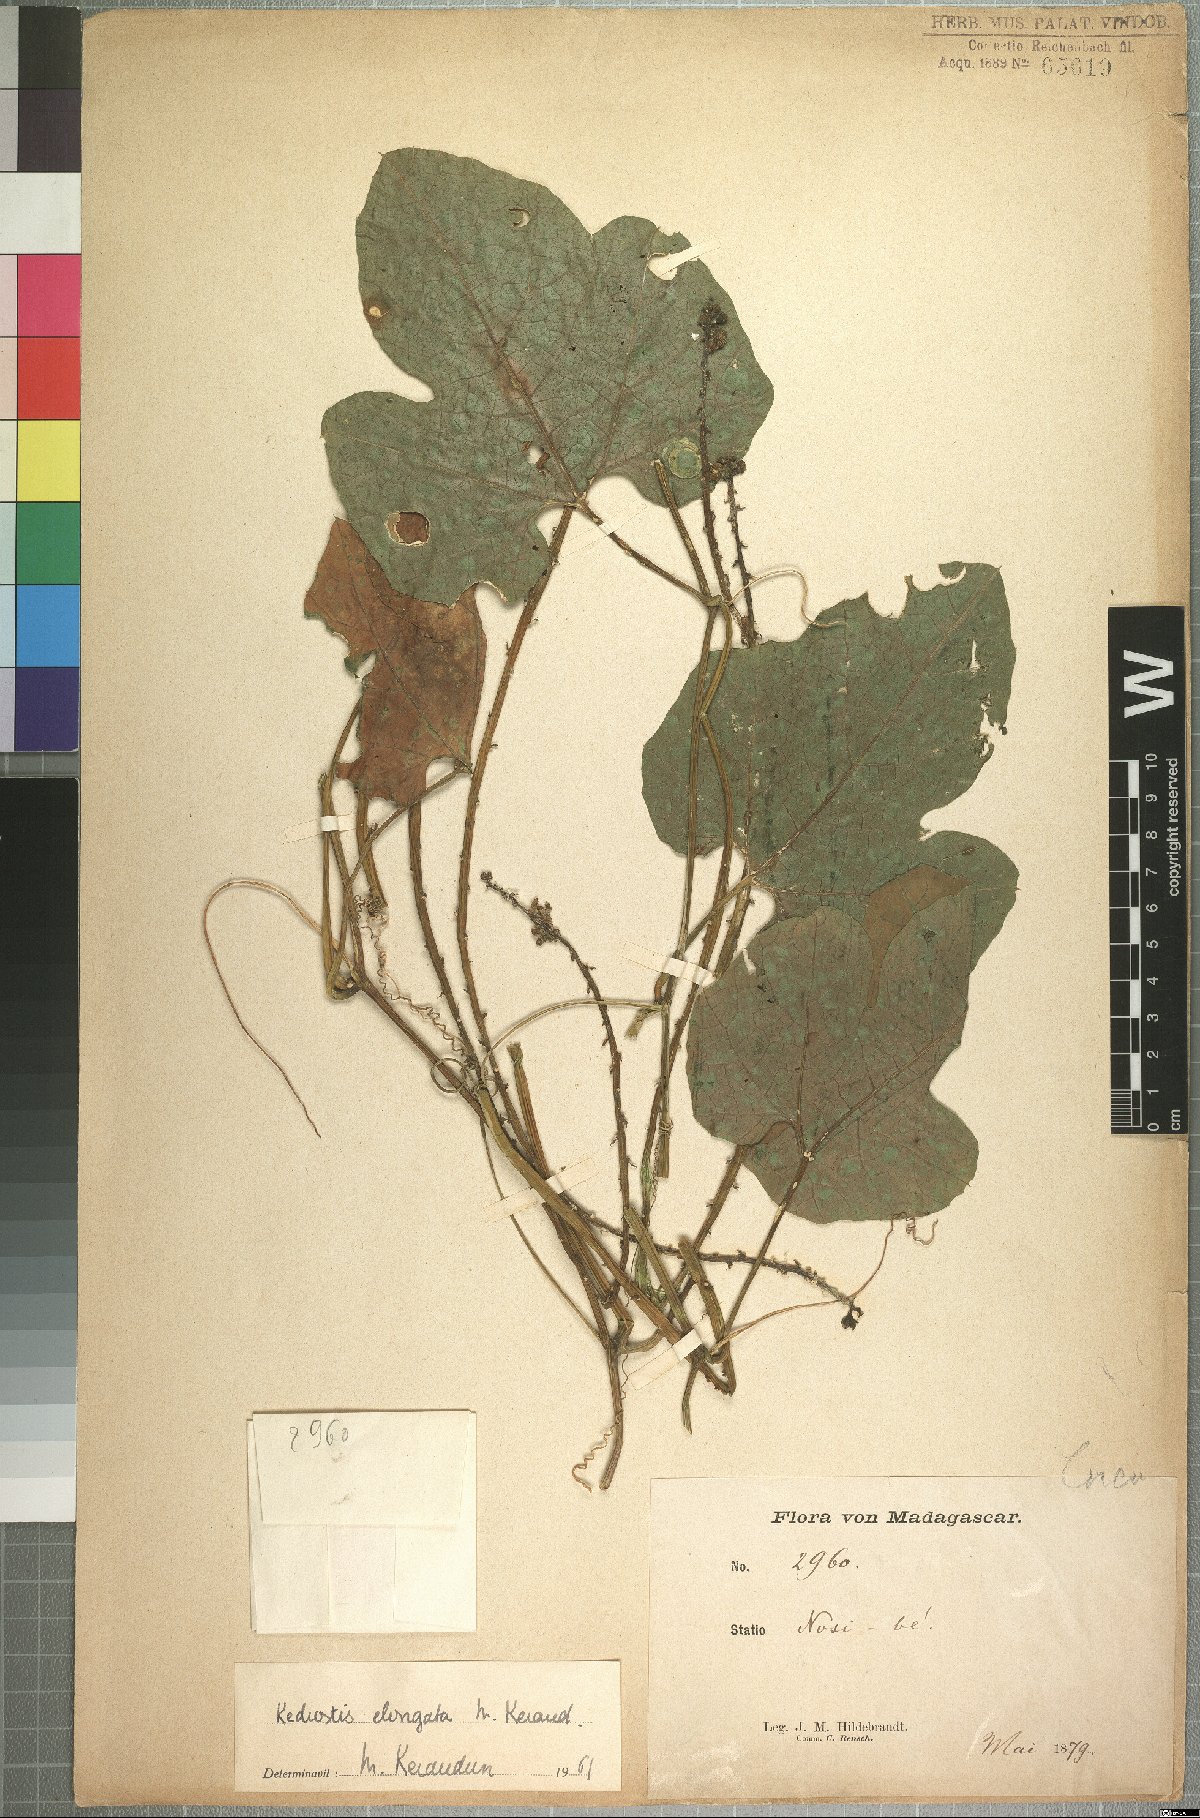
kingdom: Plantae
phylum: Tracheophyta
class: Magnoliopsida
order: Cucurbitales
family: Cucurbitaceae
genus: Kedrostis
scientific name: Kedrostis elongata
